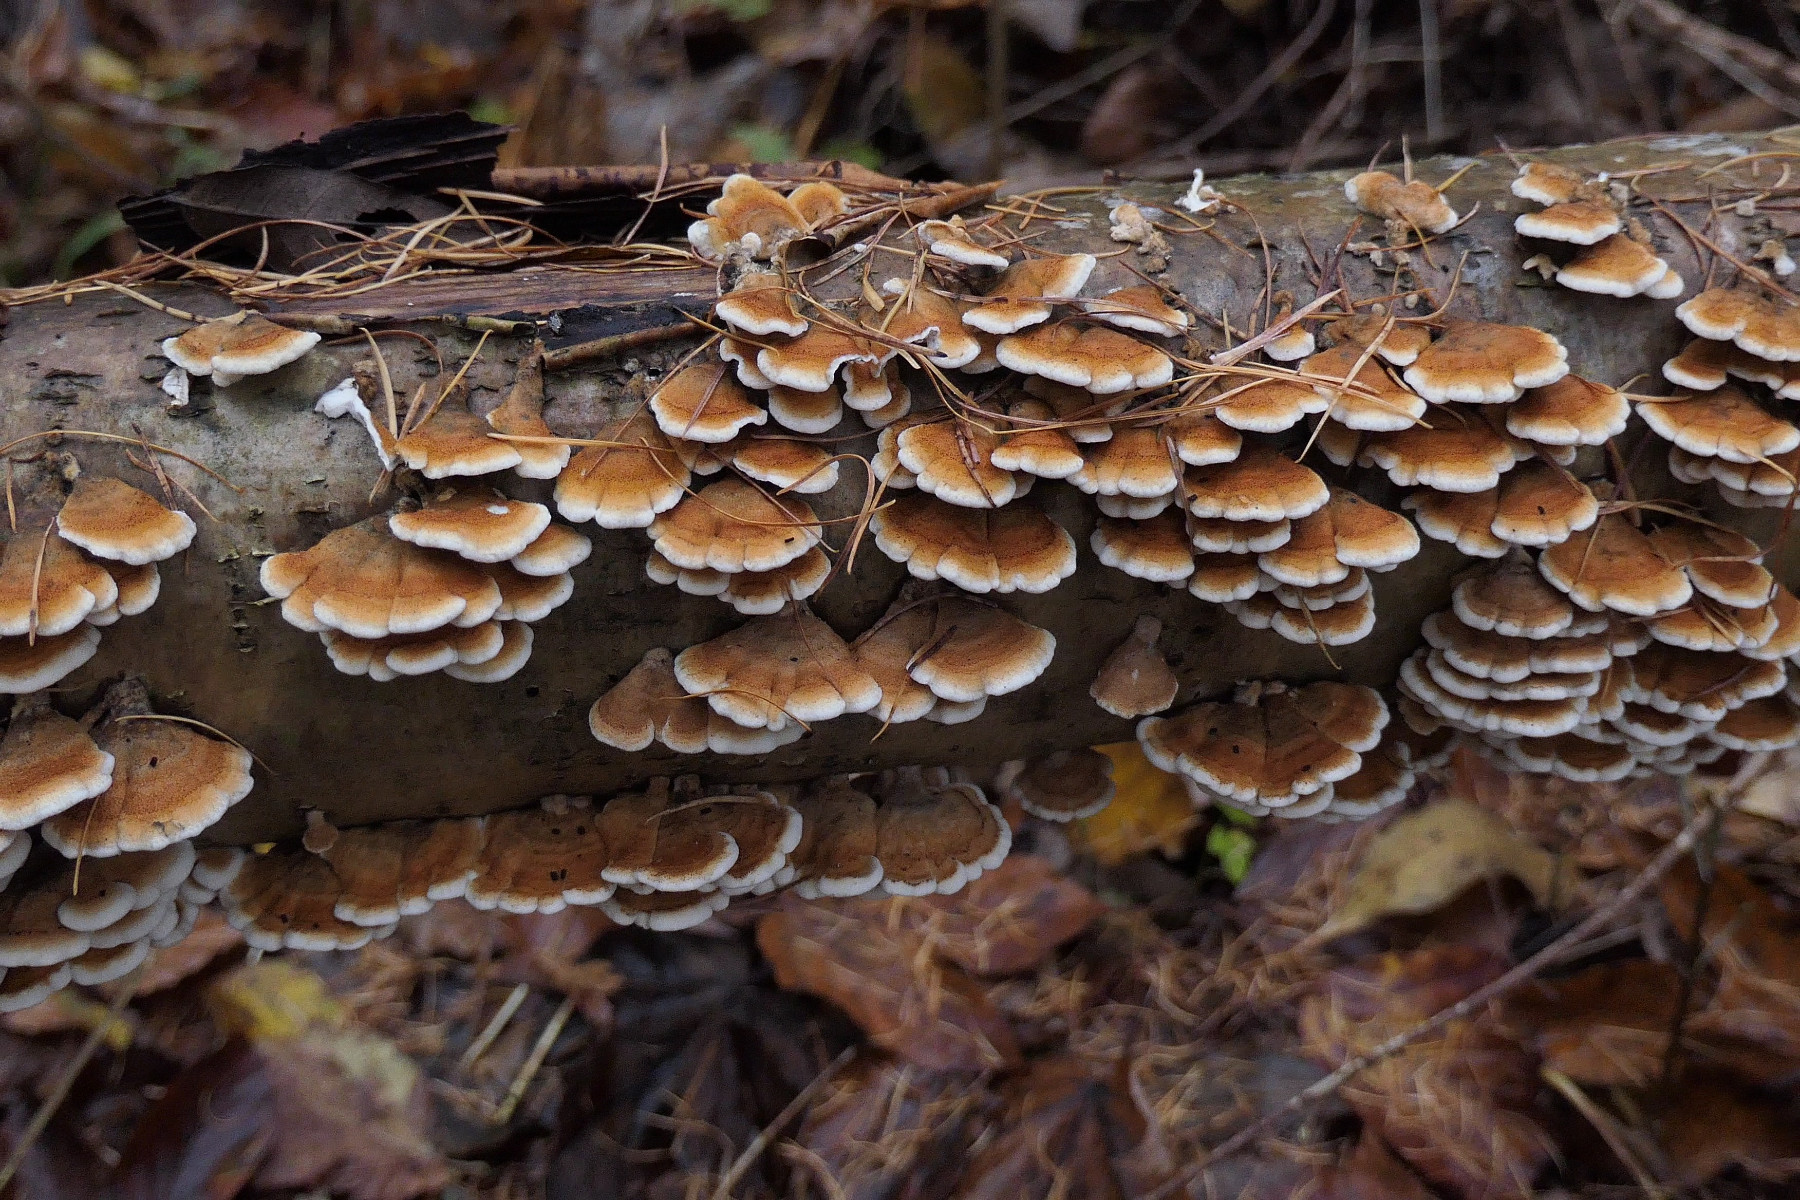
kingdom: Fungi
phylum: Basidiomycota
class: Agaricomycetes
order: Amylocorticiales
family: Amylocorticiaceae
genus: Plicaturopsis
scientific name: Plicaturopsis crispa
